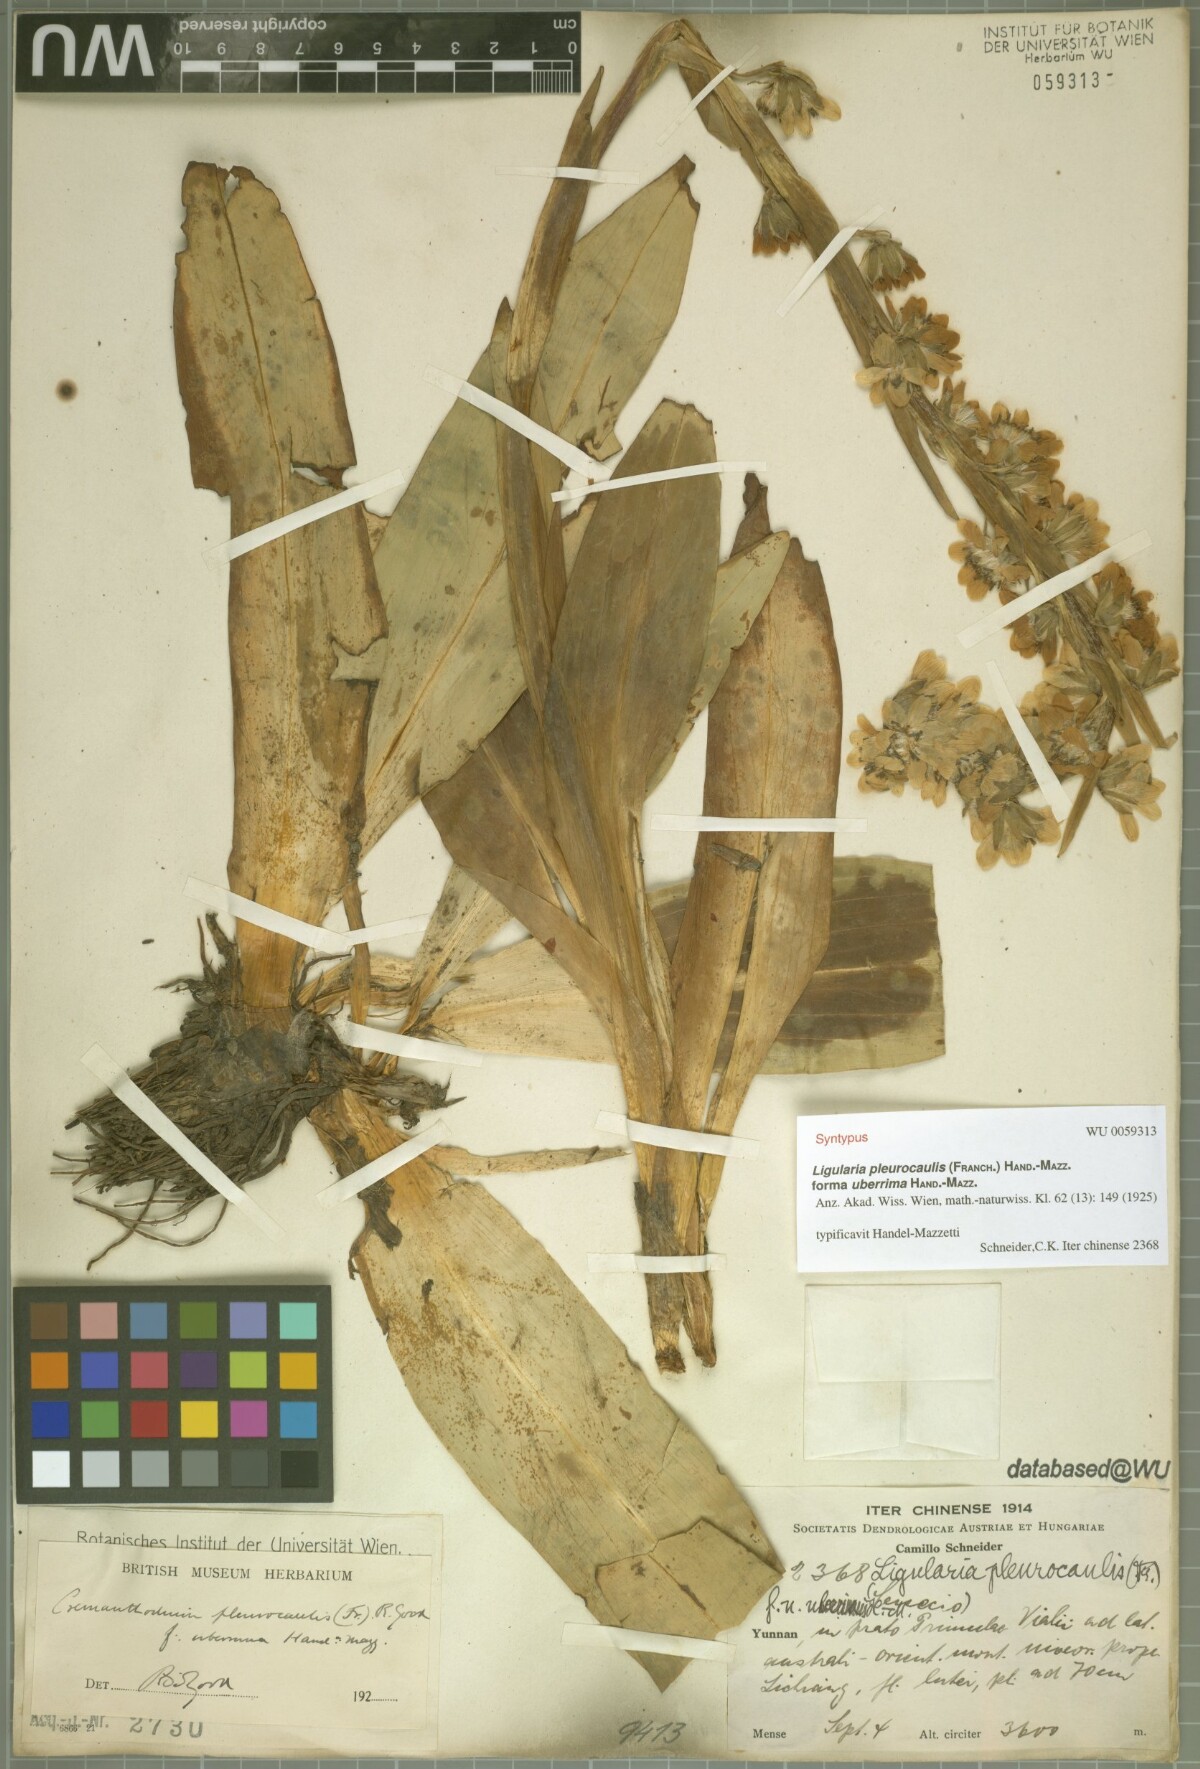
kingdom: Plantae
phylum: Tracheophyta
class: Magnoliopsida
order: Asterales
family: Asteraceae
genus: Ligularia
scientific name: Ligularia pleurocaulis
